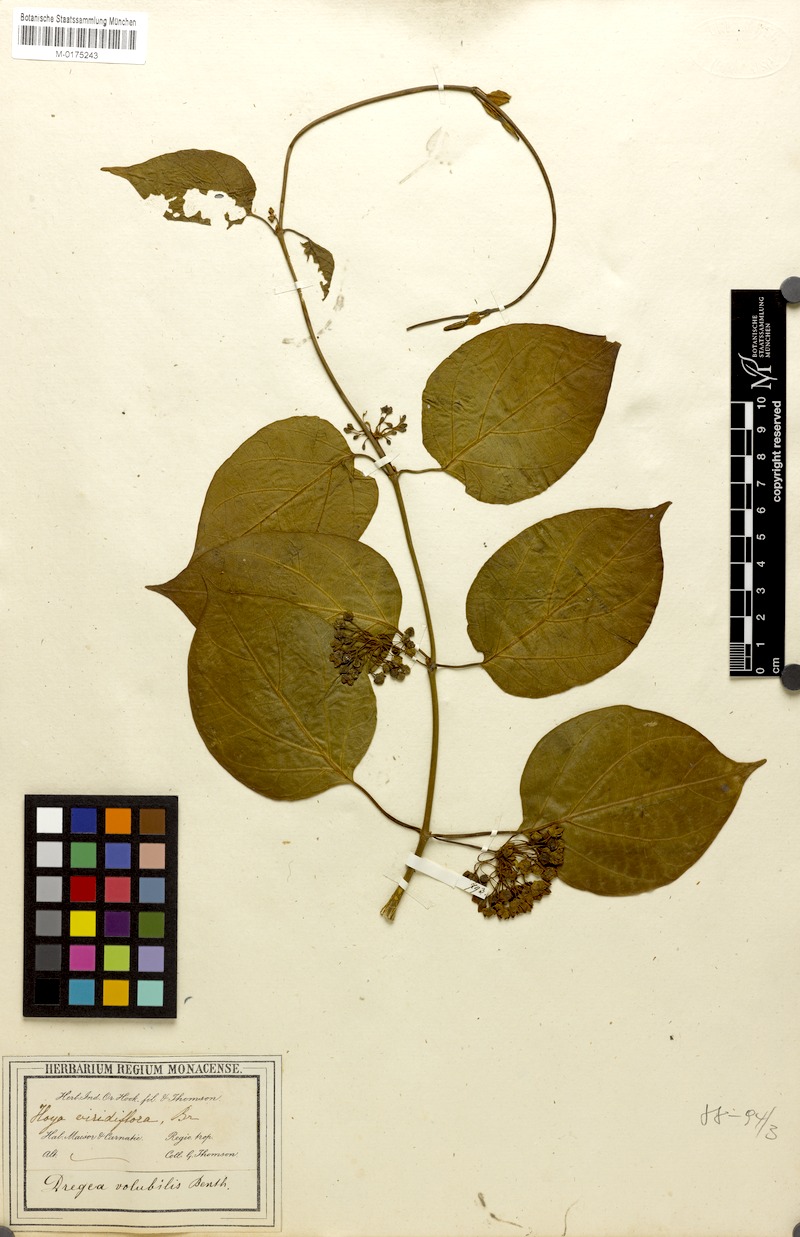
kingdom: Plantae
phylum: Tracheophyta
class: Magnoliopsida
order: Gentianales
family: Apocynaceae
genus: Stephanotis
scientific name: Stephanotis volubilis
